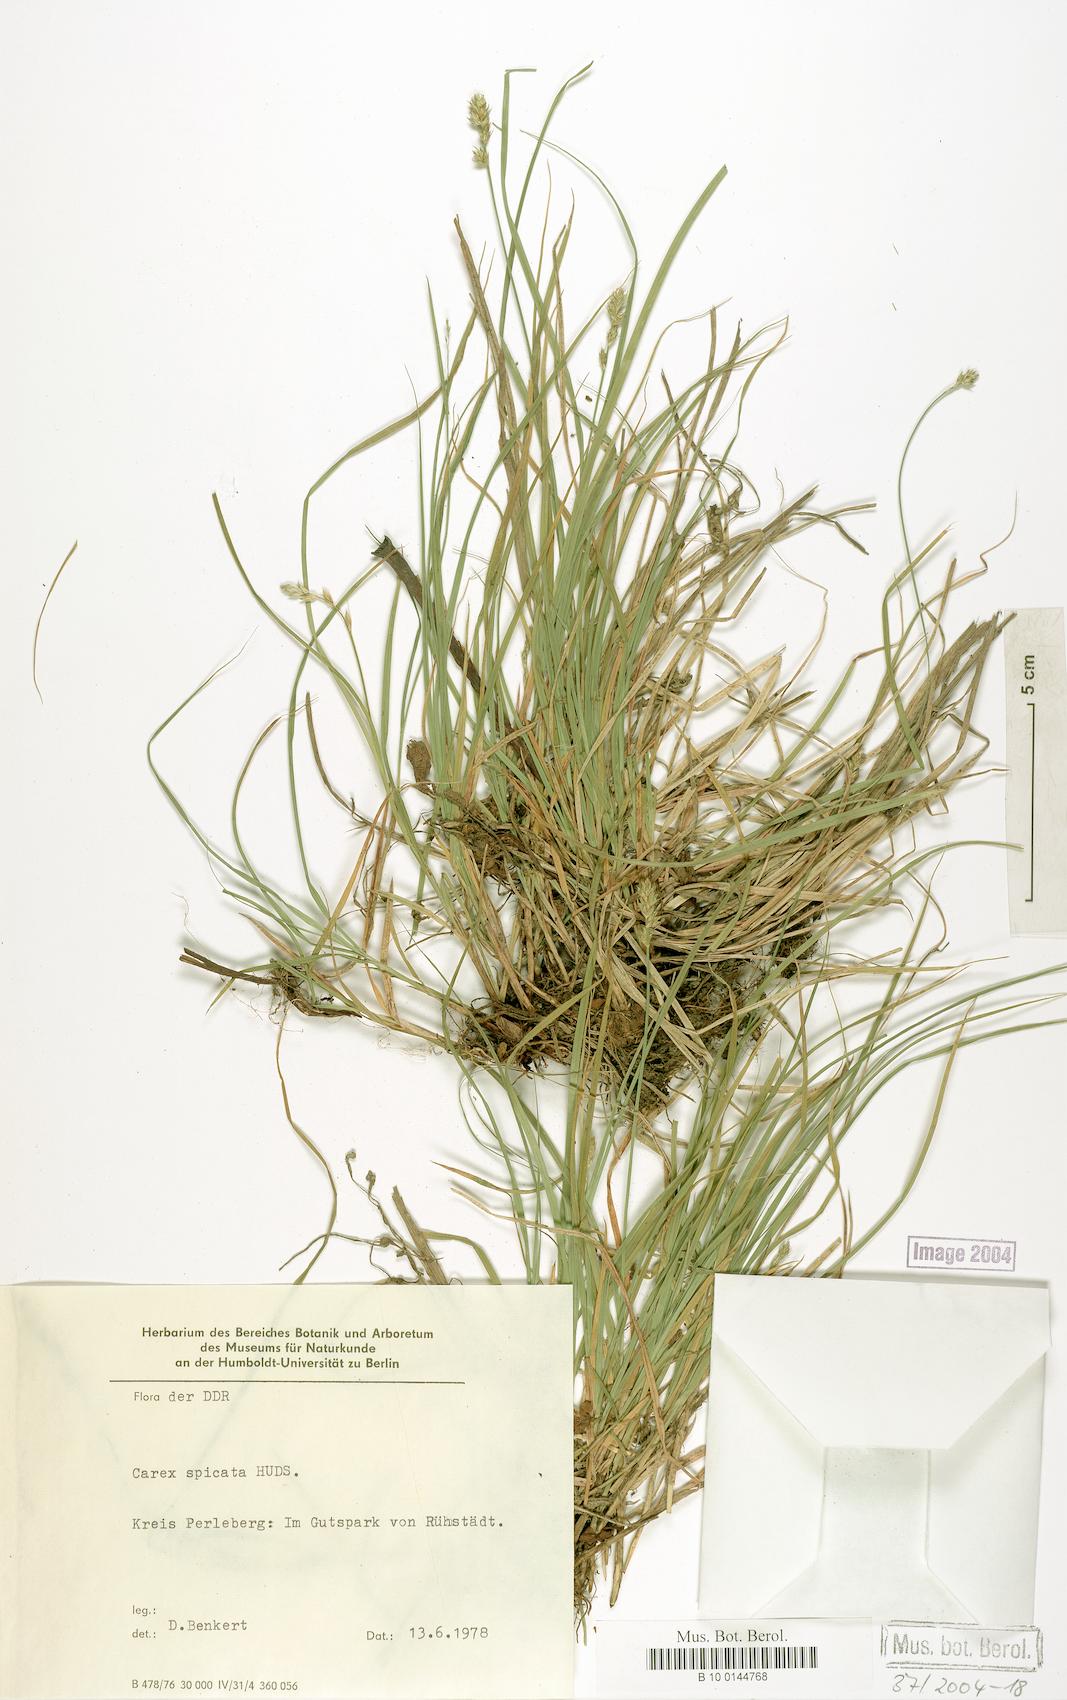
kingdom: Plantae
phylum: Tracheophyta
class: Liliopsida
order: Poales
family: Cyperaceae
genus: Carex
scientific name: Carex spicata
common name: Spiked sedge
